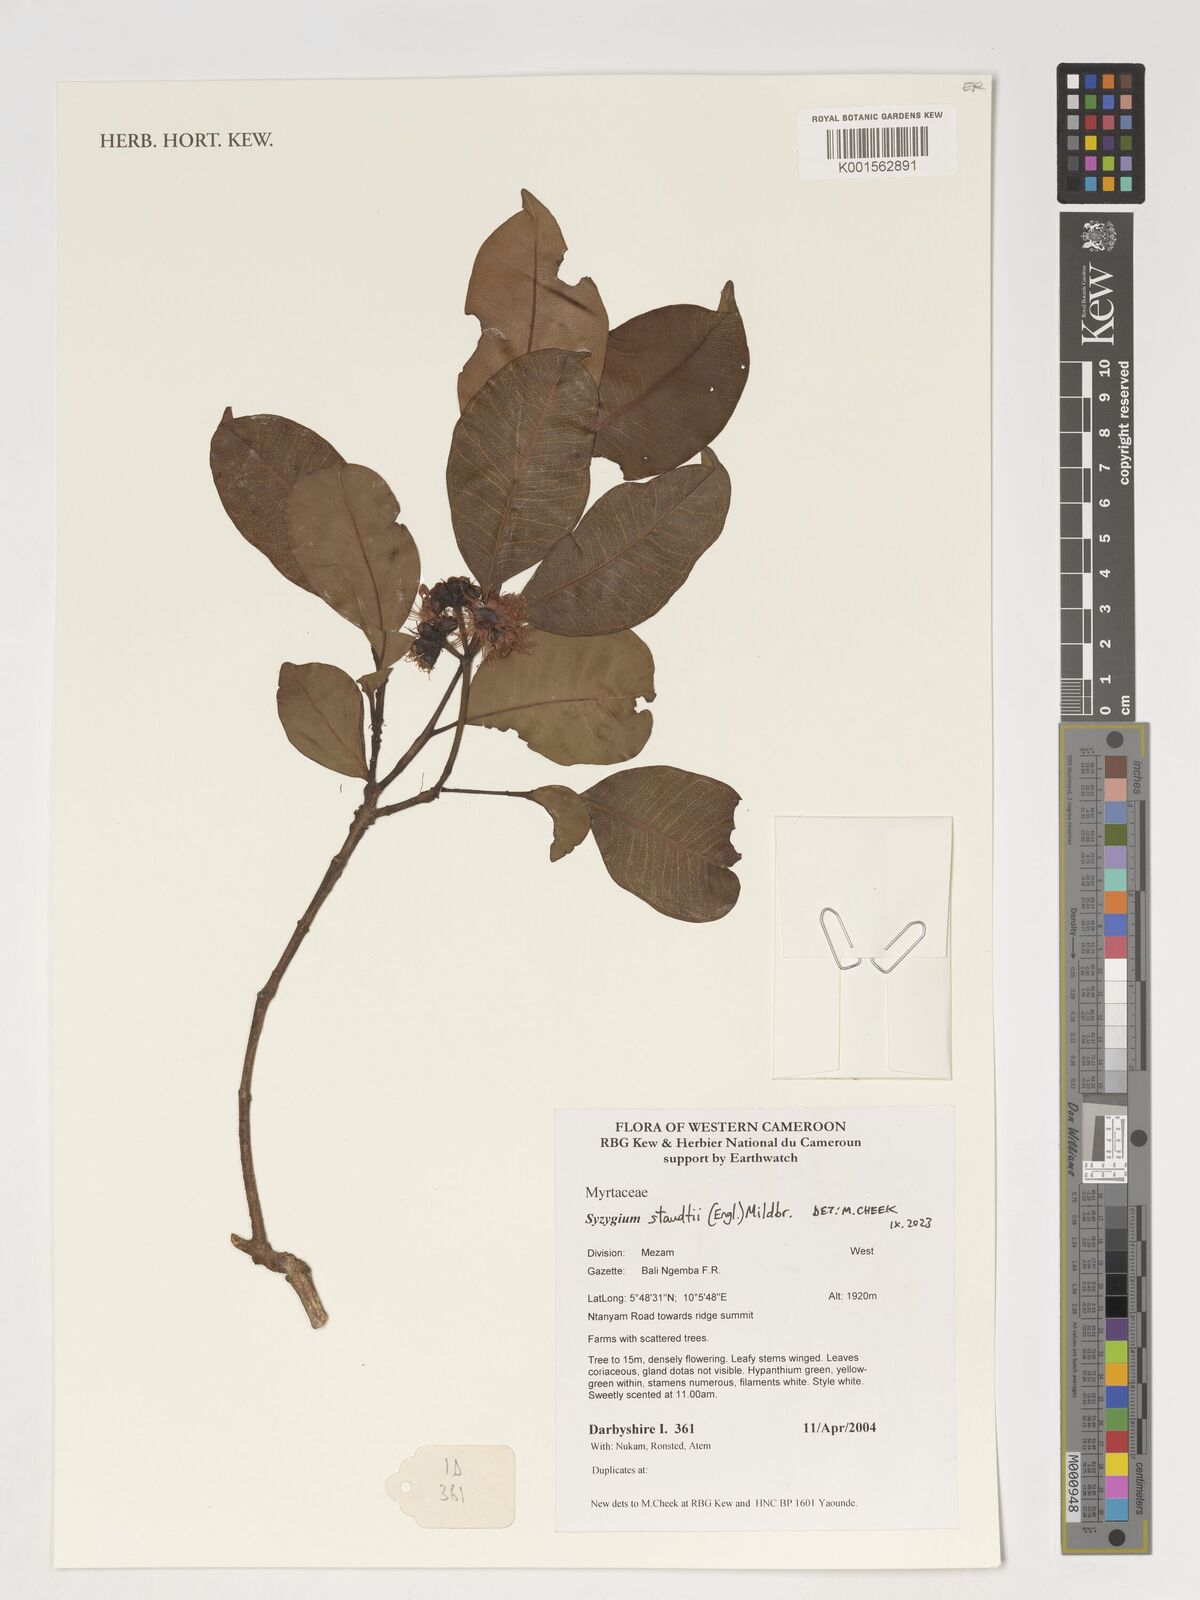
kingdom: Plantae
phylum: Tracheophyta
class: Magnoliopsida
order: Myrtales
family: Myrtaceae
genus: Syzygium
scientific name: Syzygium staudtii
